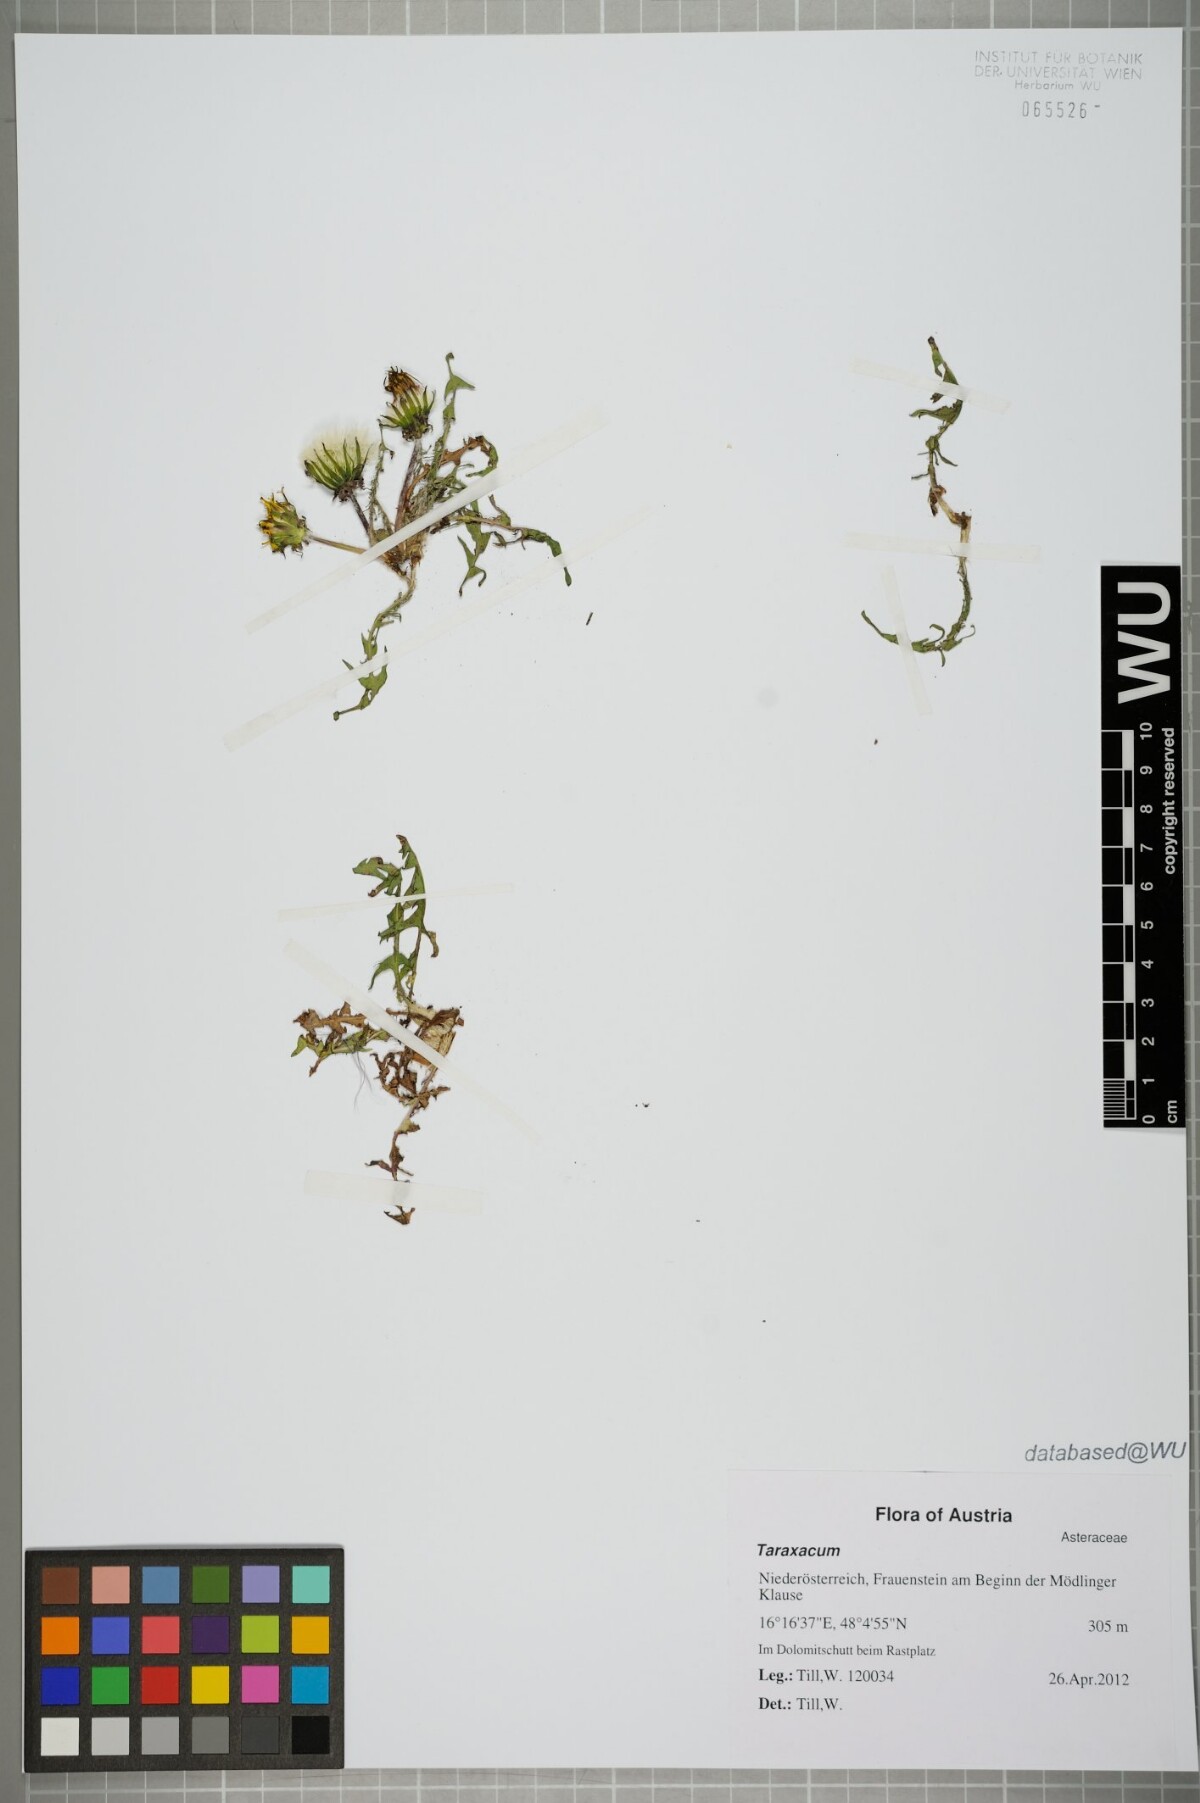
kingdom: Plantae
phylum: Tracheophyta
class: Magnoliopsida
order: Asterales
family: Asteraceae
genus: Taraxacum
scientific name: Taraxacum
